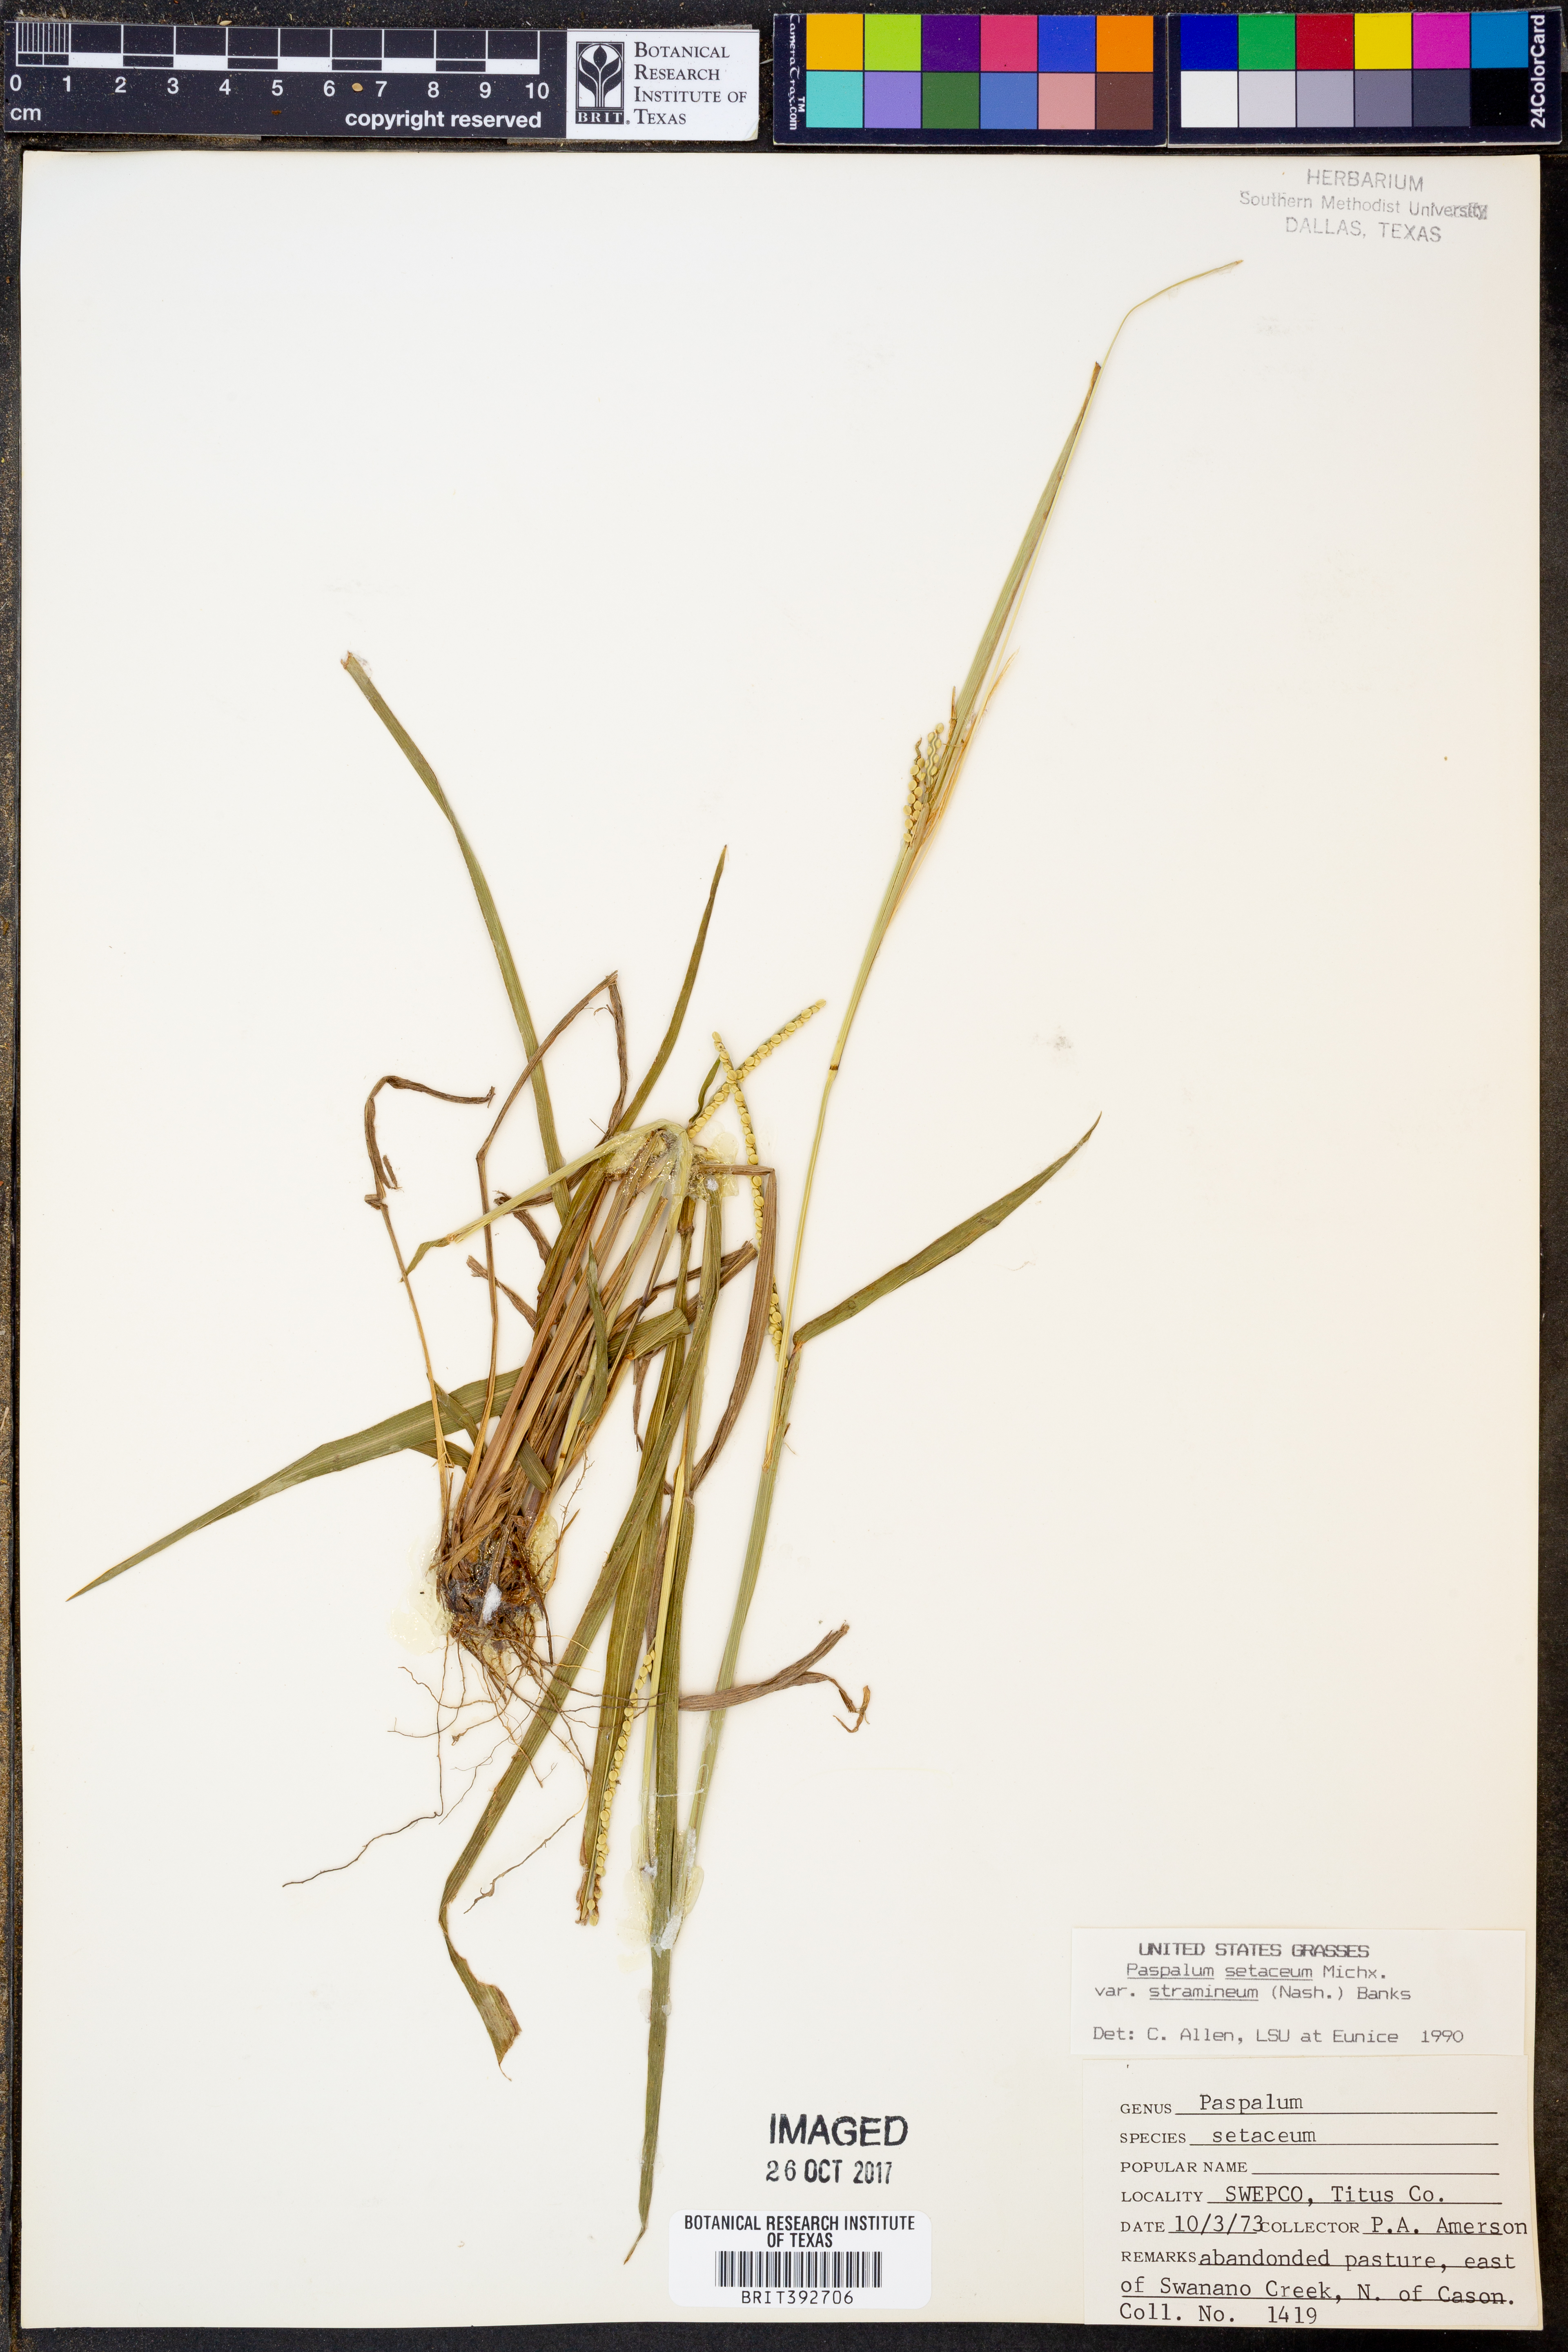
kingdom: Plantae
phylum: Tracheophyta
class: Liliopsida
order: Poales
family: Poaceae
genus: Paspalum
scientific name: Paspalum setaceum
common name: Slender paspalum
